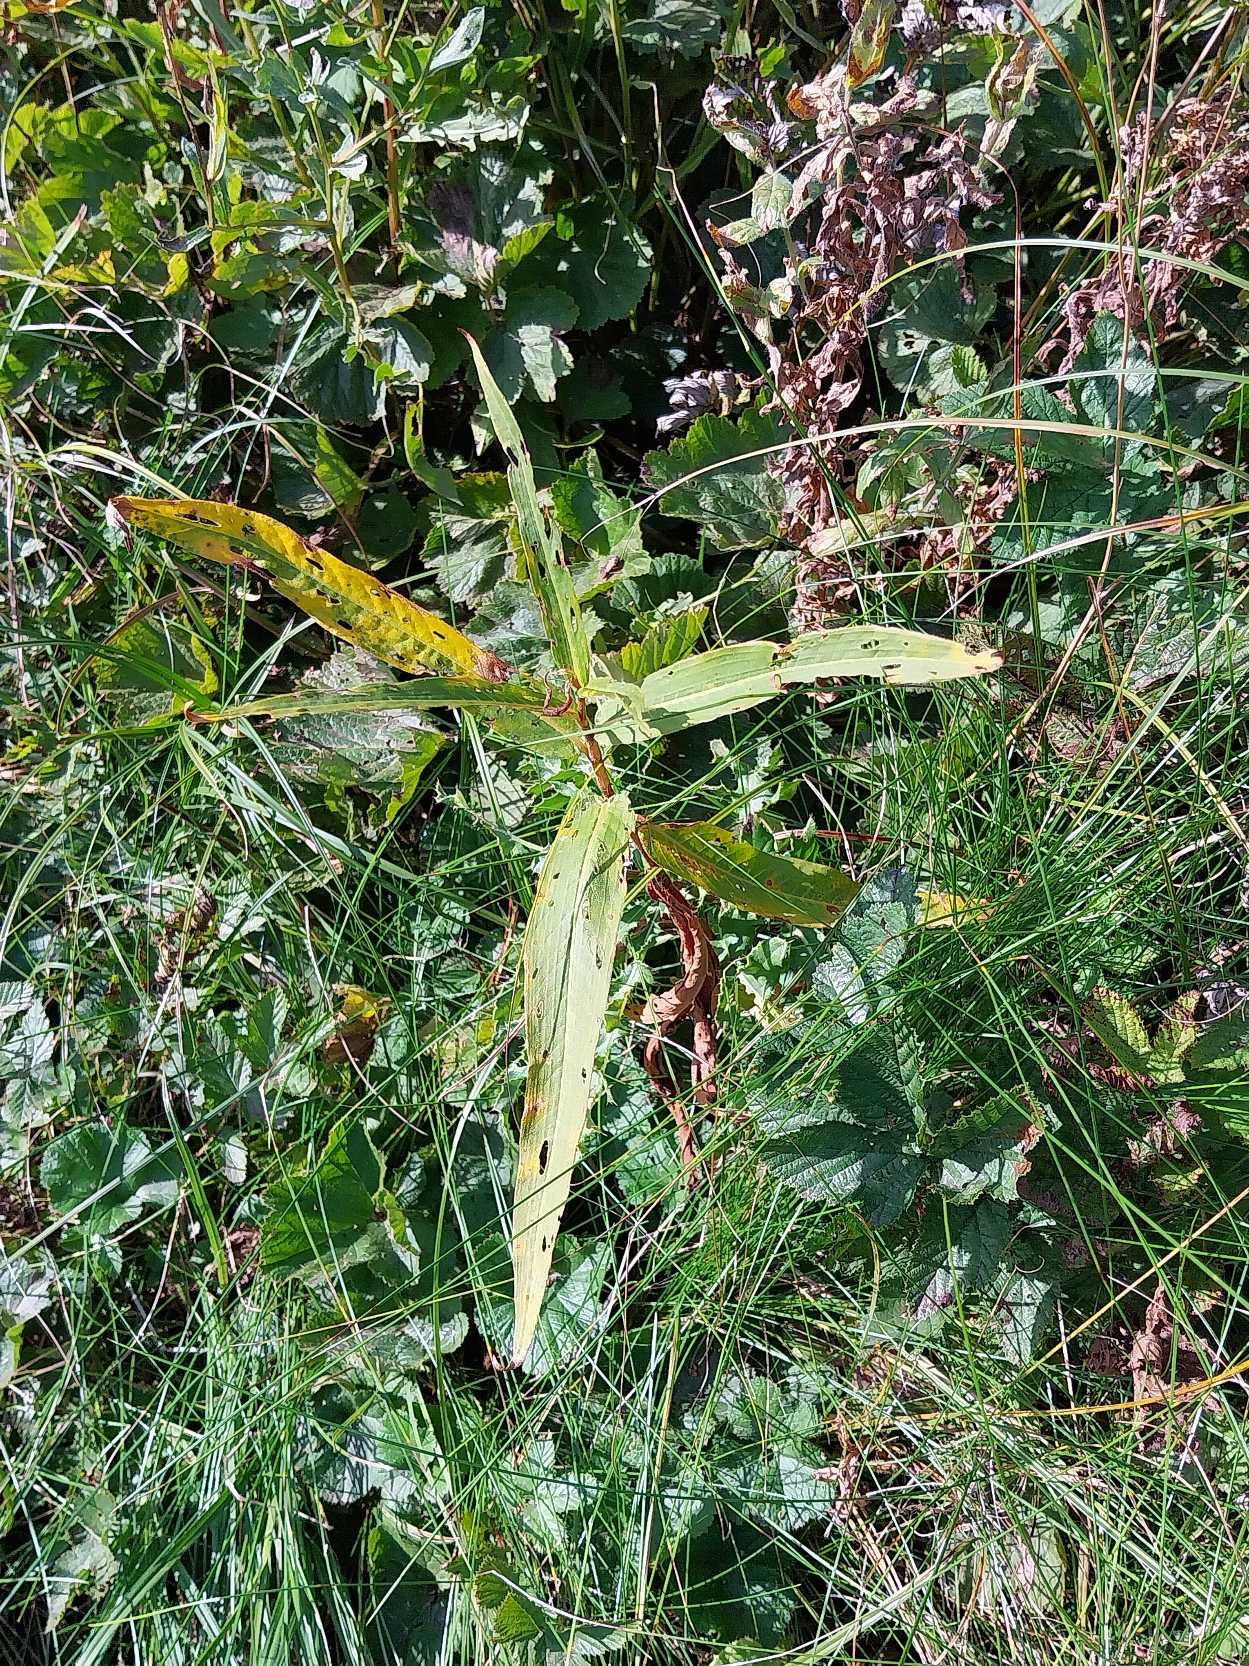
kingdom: Plantae
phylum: Tracheophyta
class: Magnoliopsida
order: Caryophyllales
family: Polygonaceae
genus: Persicaria
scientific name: Persicaria amphibia
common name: Vand-pileurt
